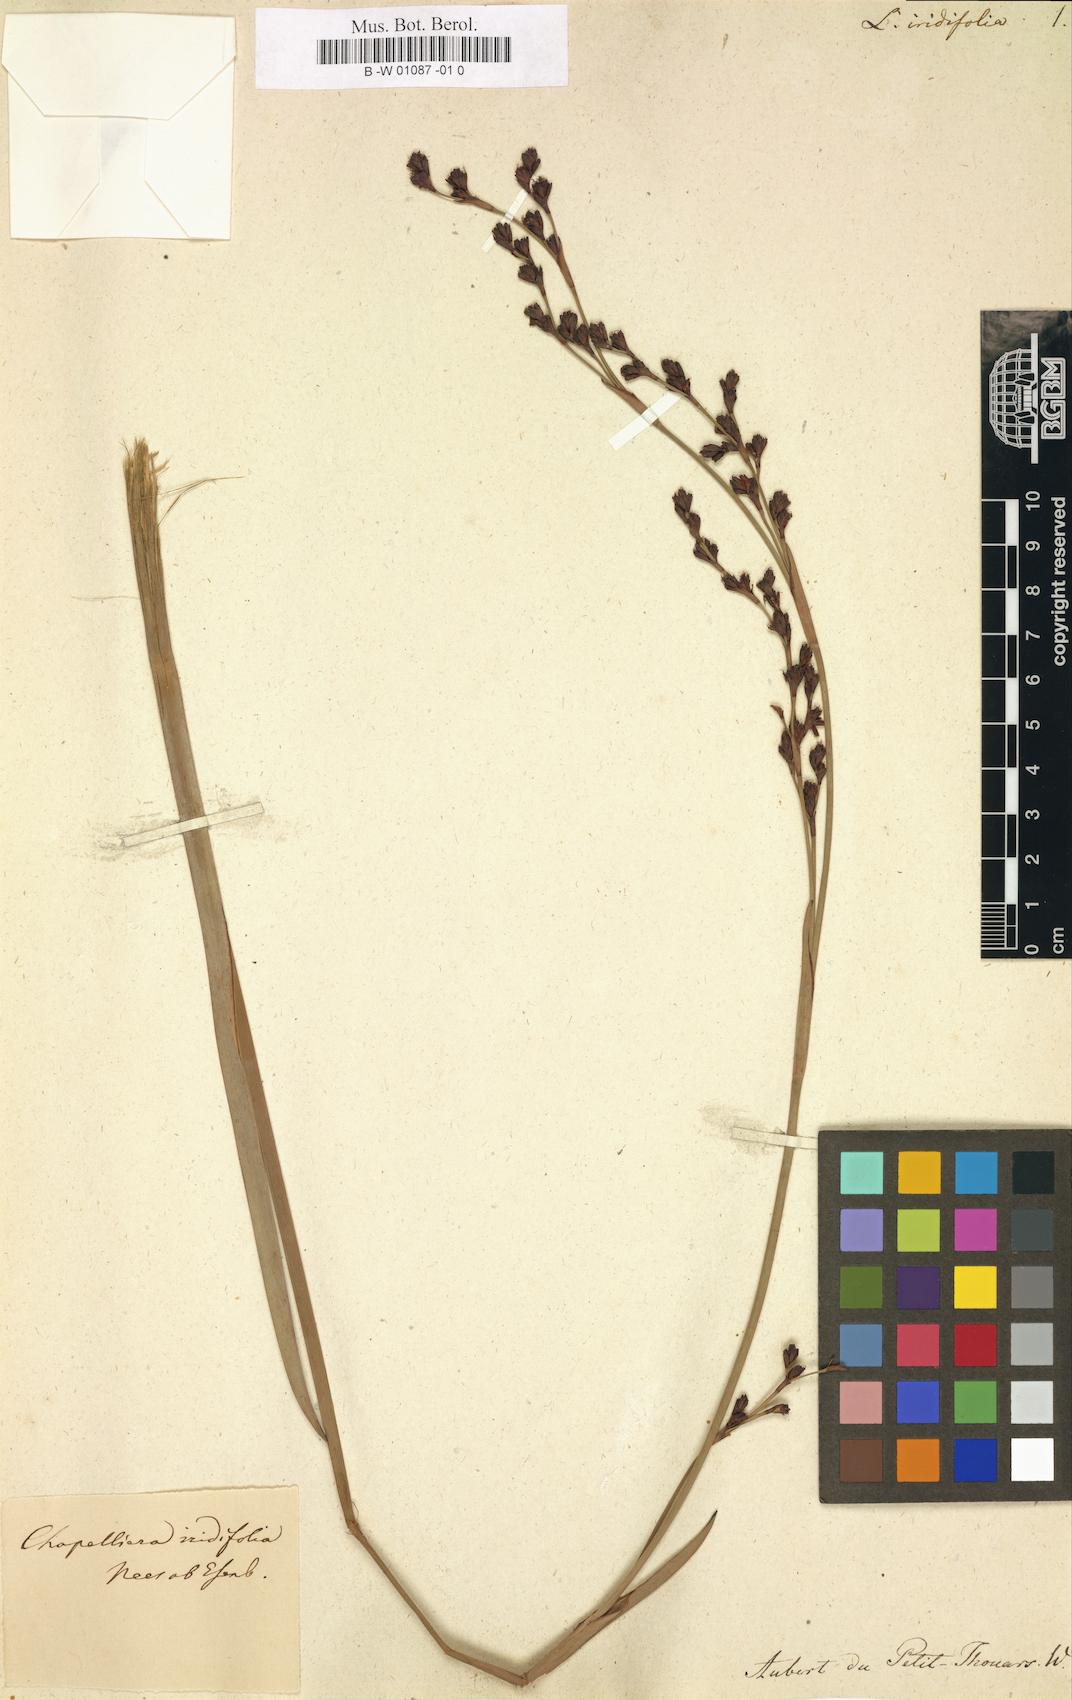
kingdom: Plantae
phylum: Tracheophyta
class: Liliopsida
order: Poales
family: Cyperaceae
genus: Machaerina
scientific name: Machaerina flexuosa
